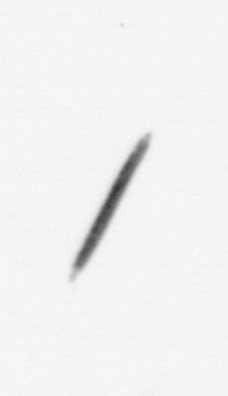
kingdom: Chromista
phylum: Ochrophyta
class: Bacillariophyceae
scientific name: Bacillariophyceae
